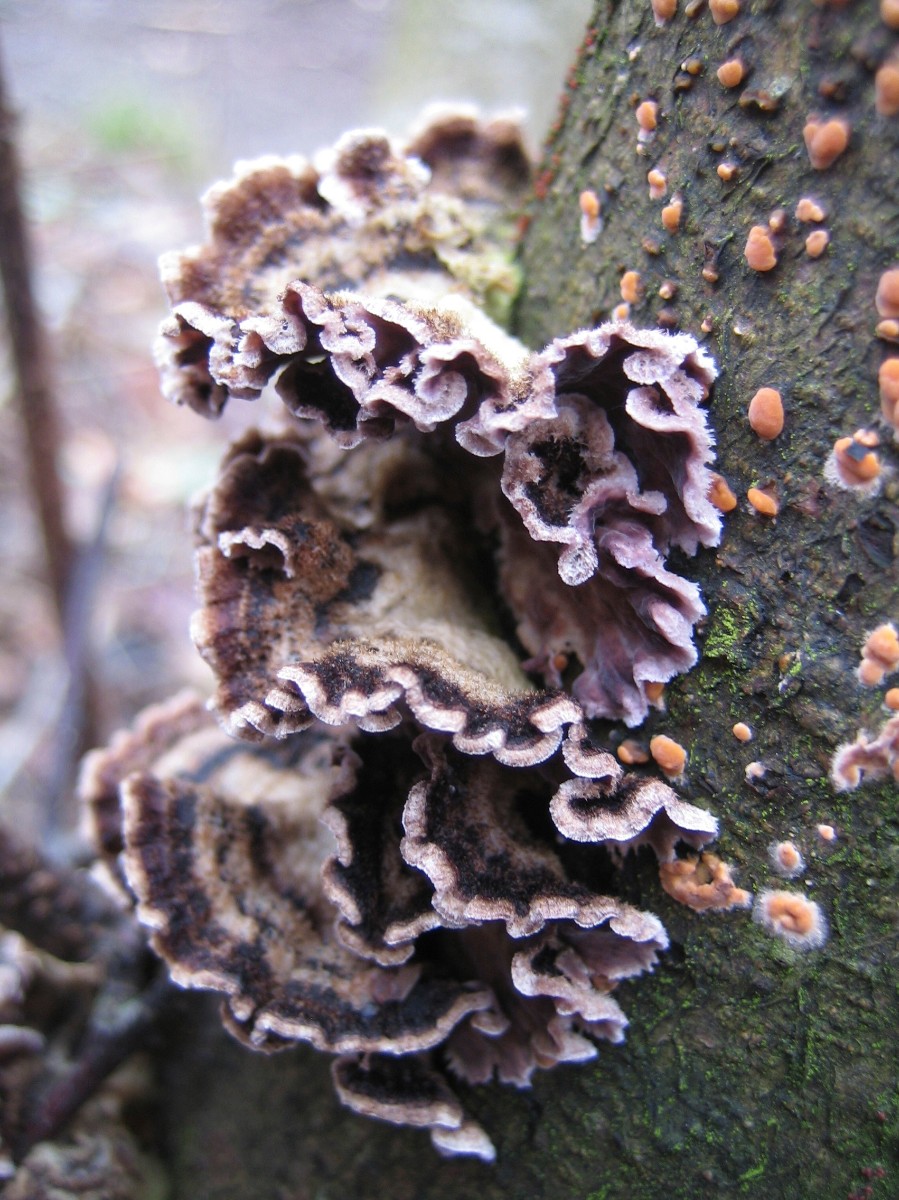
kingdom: Fungi
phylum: Basidiomycota
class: Agaricomycetes
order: Agaricales
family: Cyphellaceae
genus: Chondrostereum
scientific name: Chondrostereum
